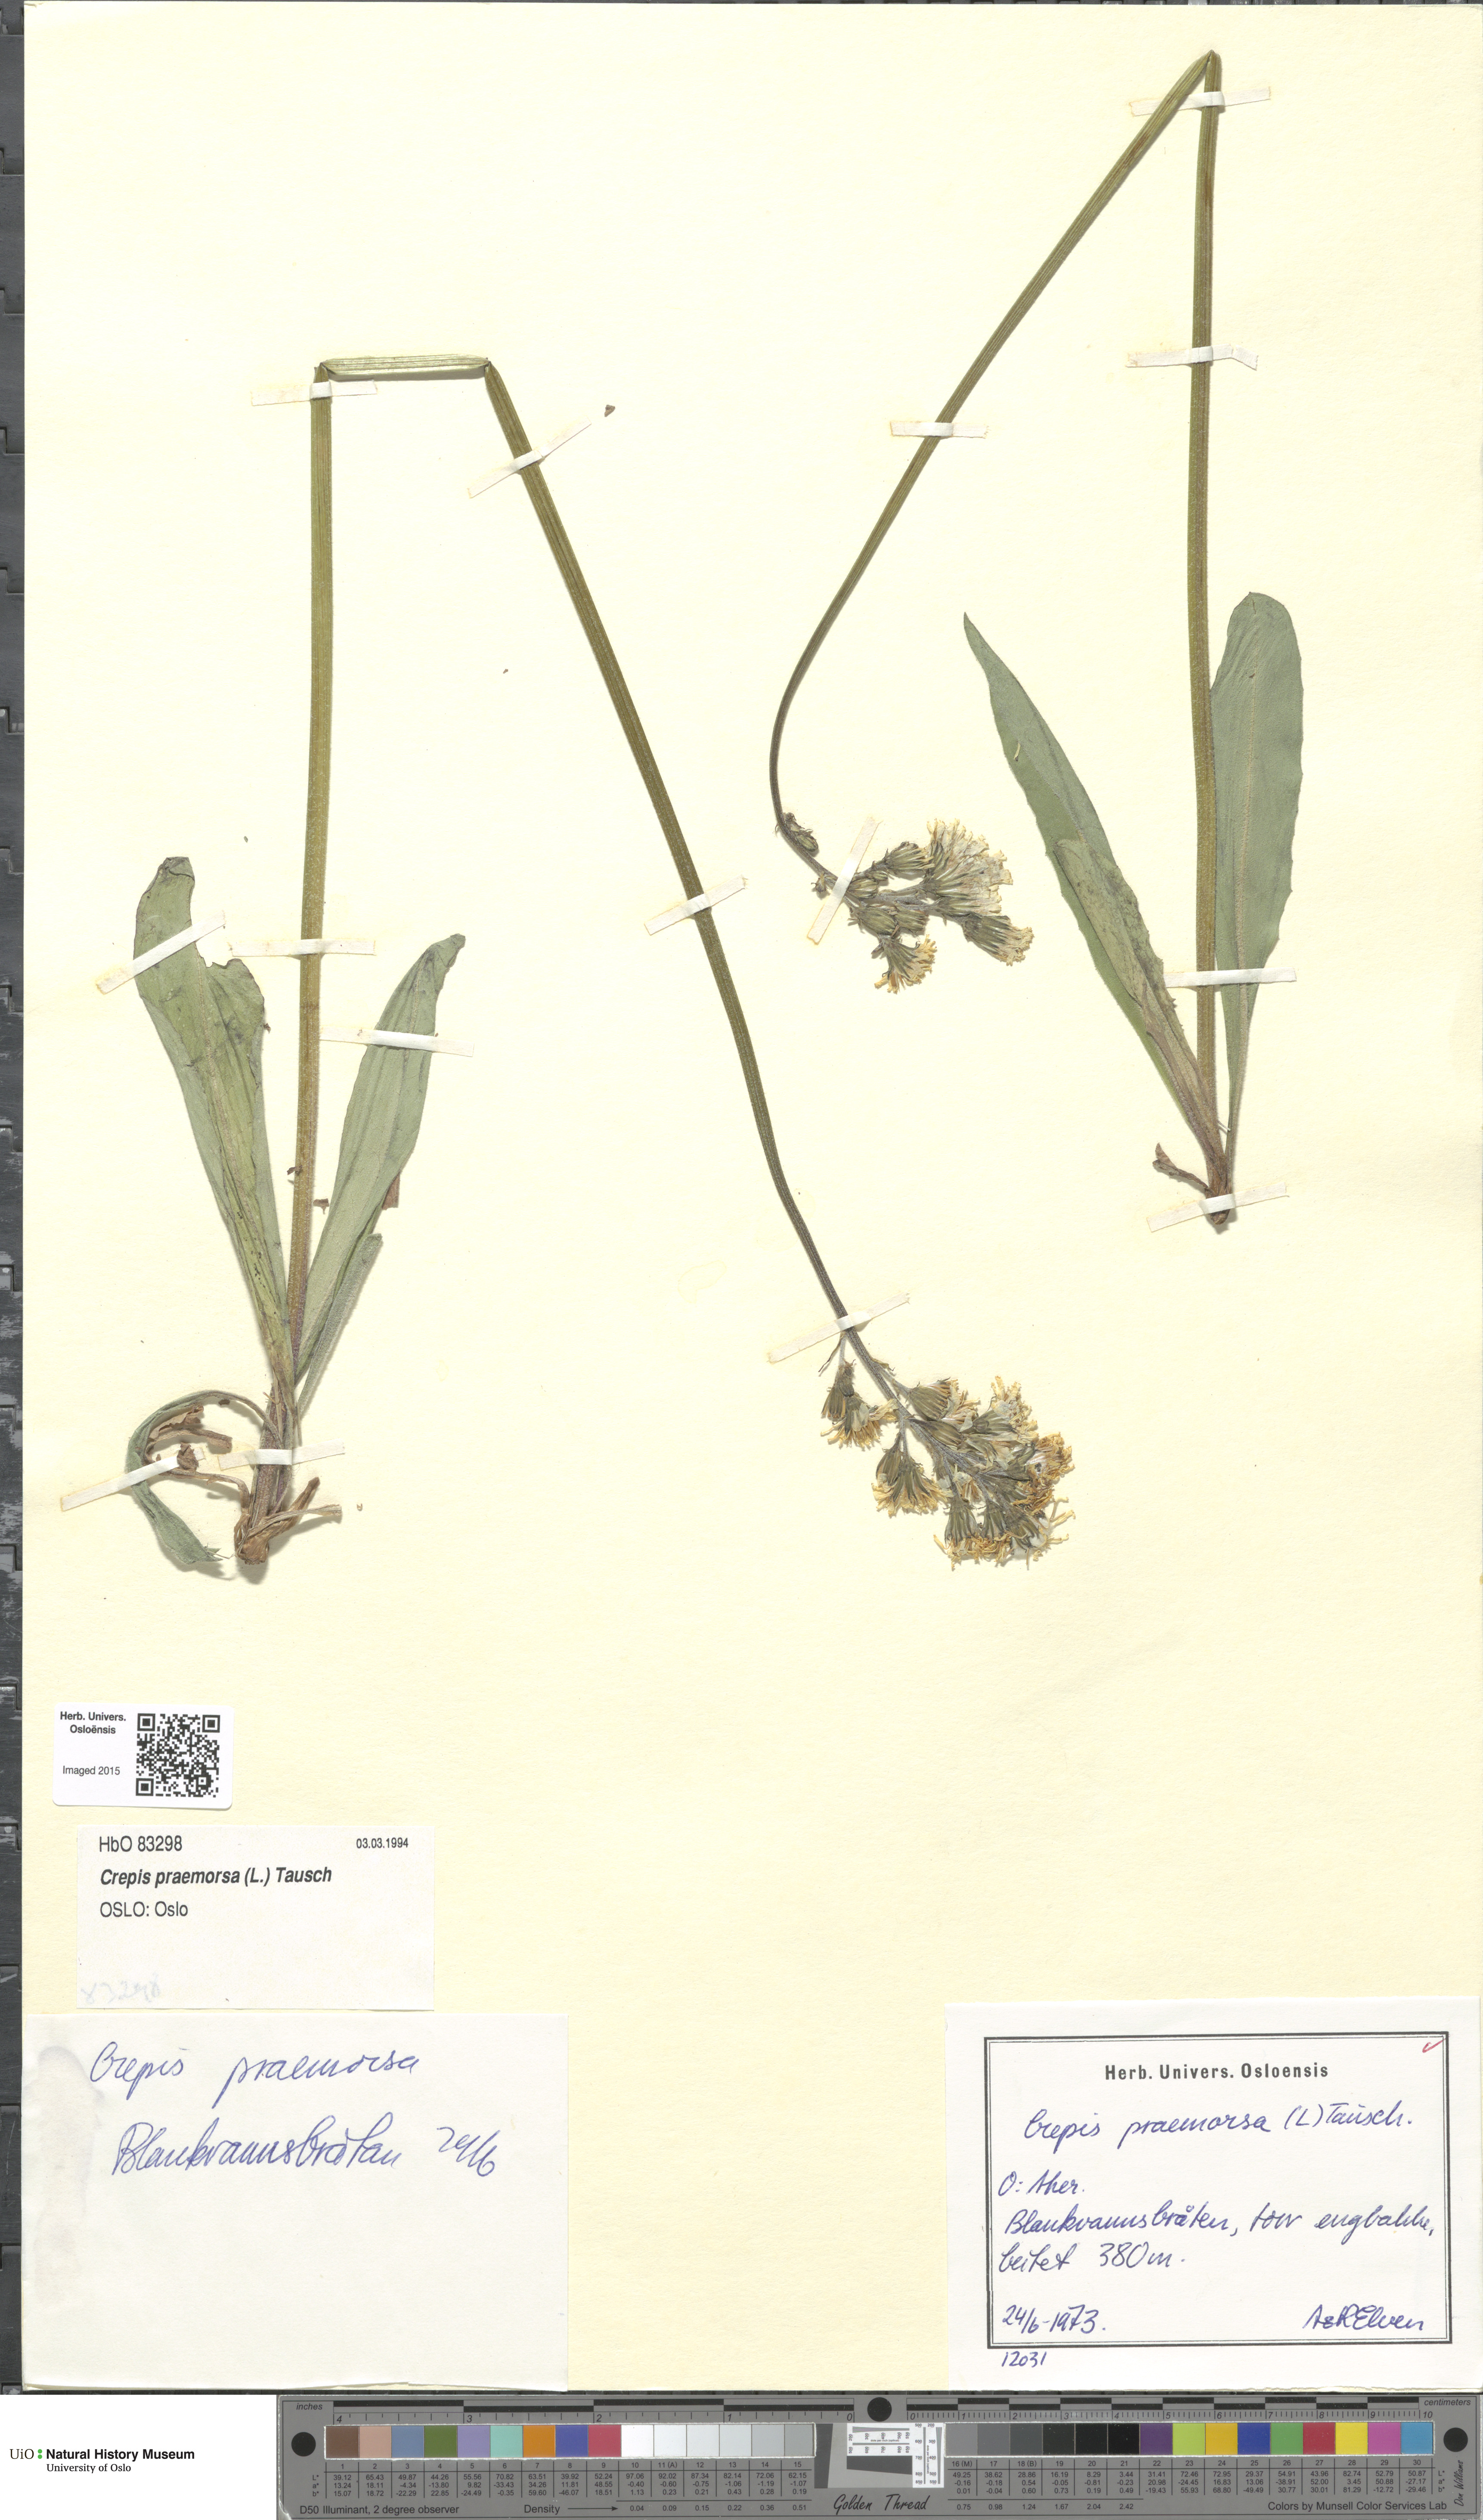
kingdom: Plantae
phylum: Tracheophyta
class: Magnoliopsida
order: Asterales
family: Asteraceae
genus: Crepis
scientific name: Crepis praemorsa
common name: Leafless hawk's-beard
